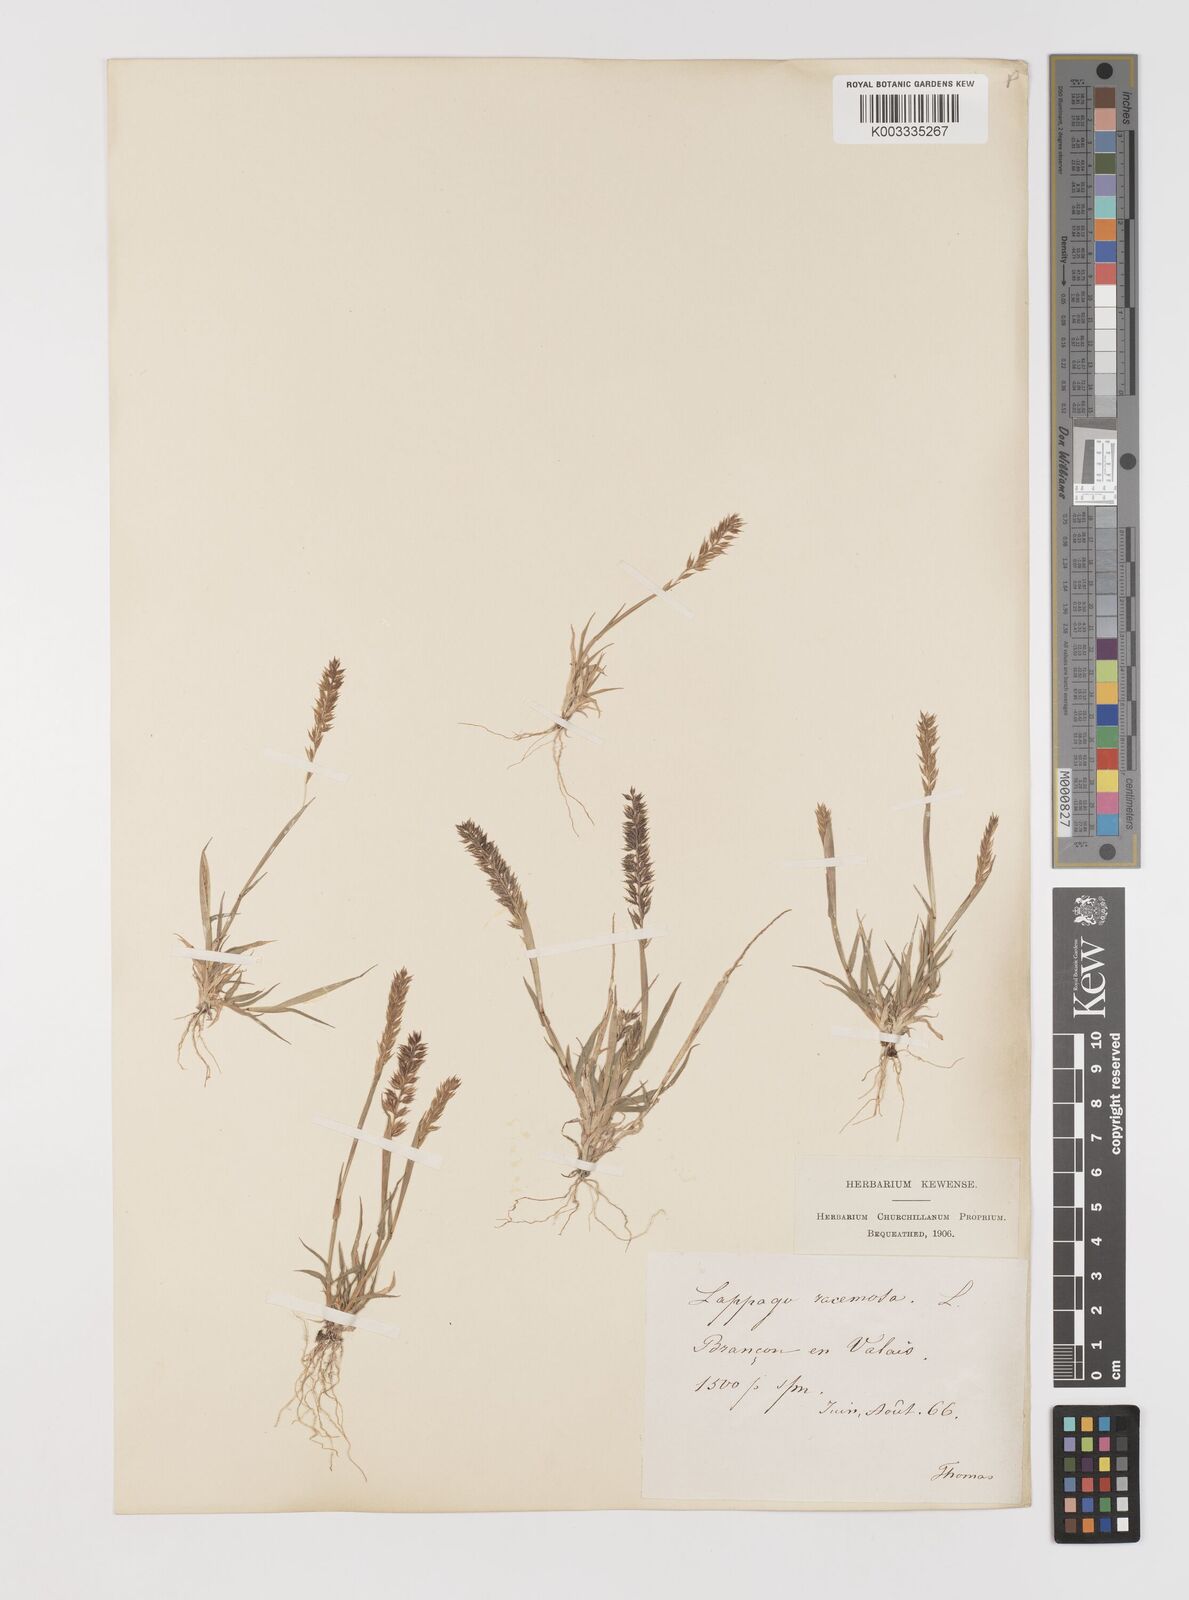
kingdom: Plantae
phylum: Tracheophyta
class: Liliopsida
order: Poales
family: Poaceae
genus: Tragus
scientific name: Tragus racemosus
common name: European bur-grass
